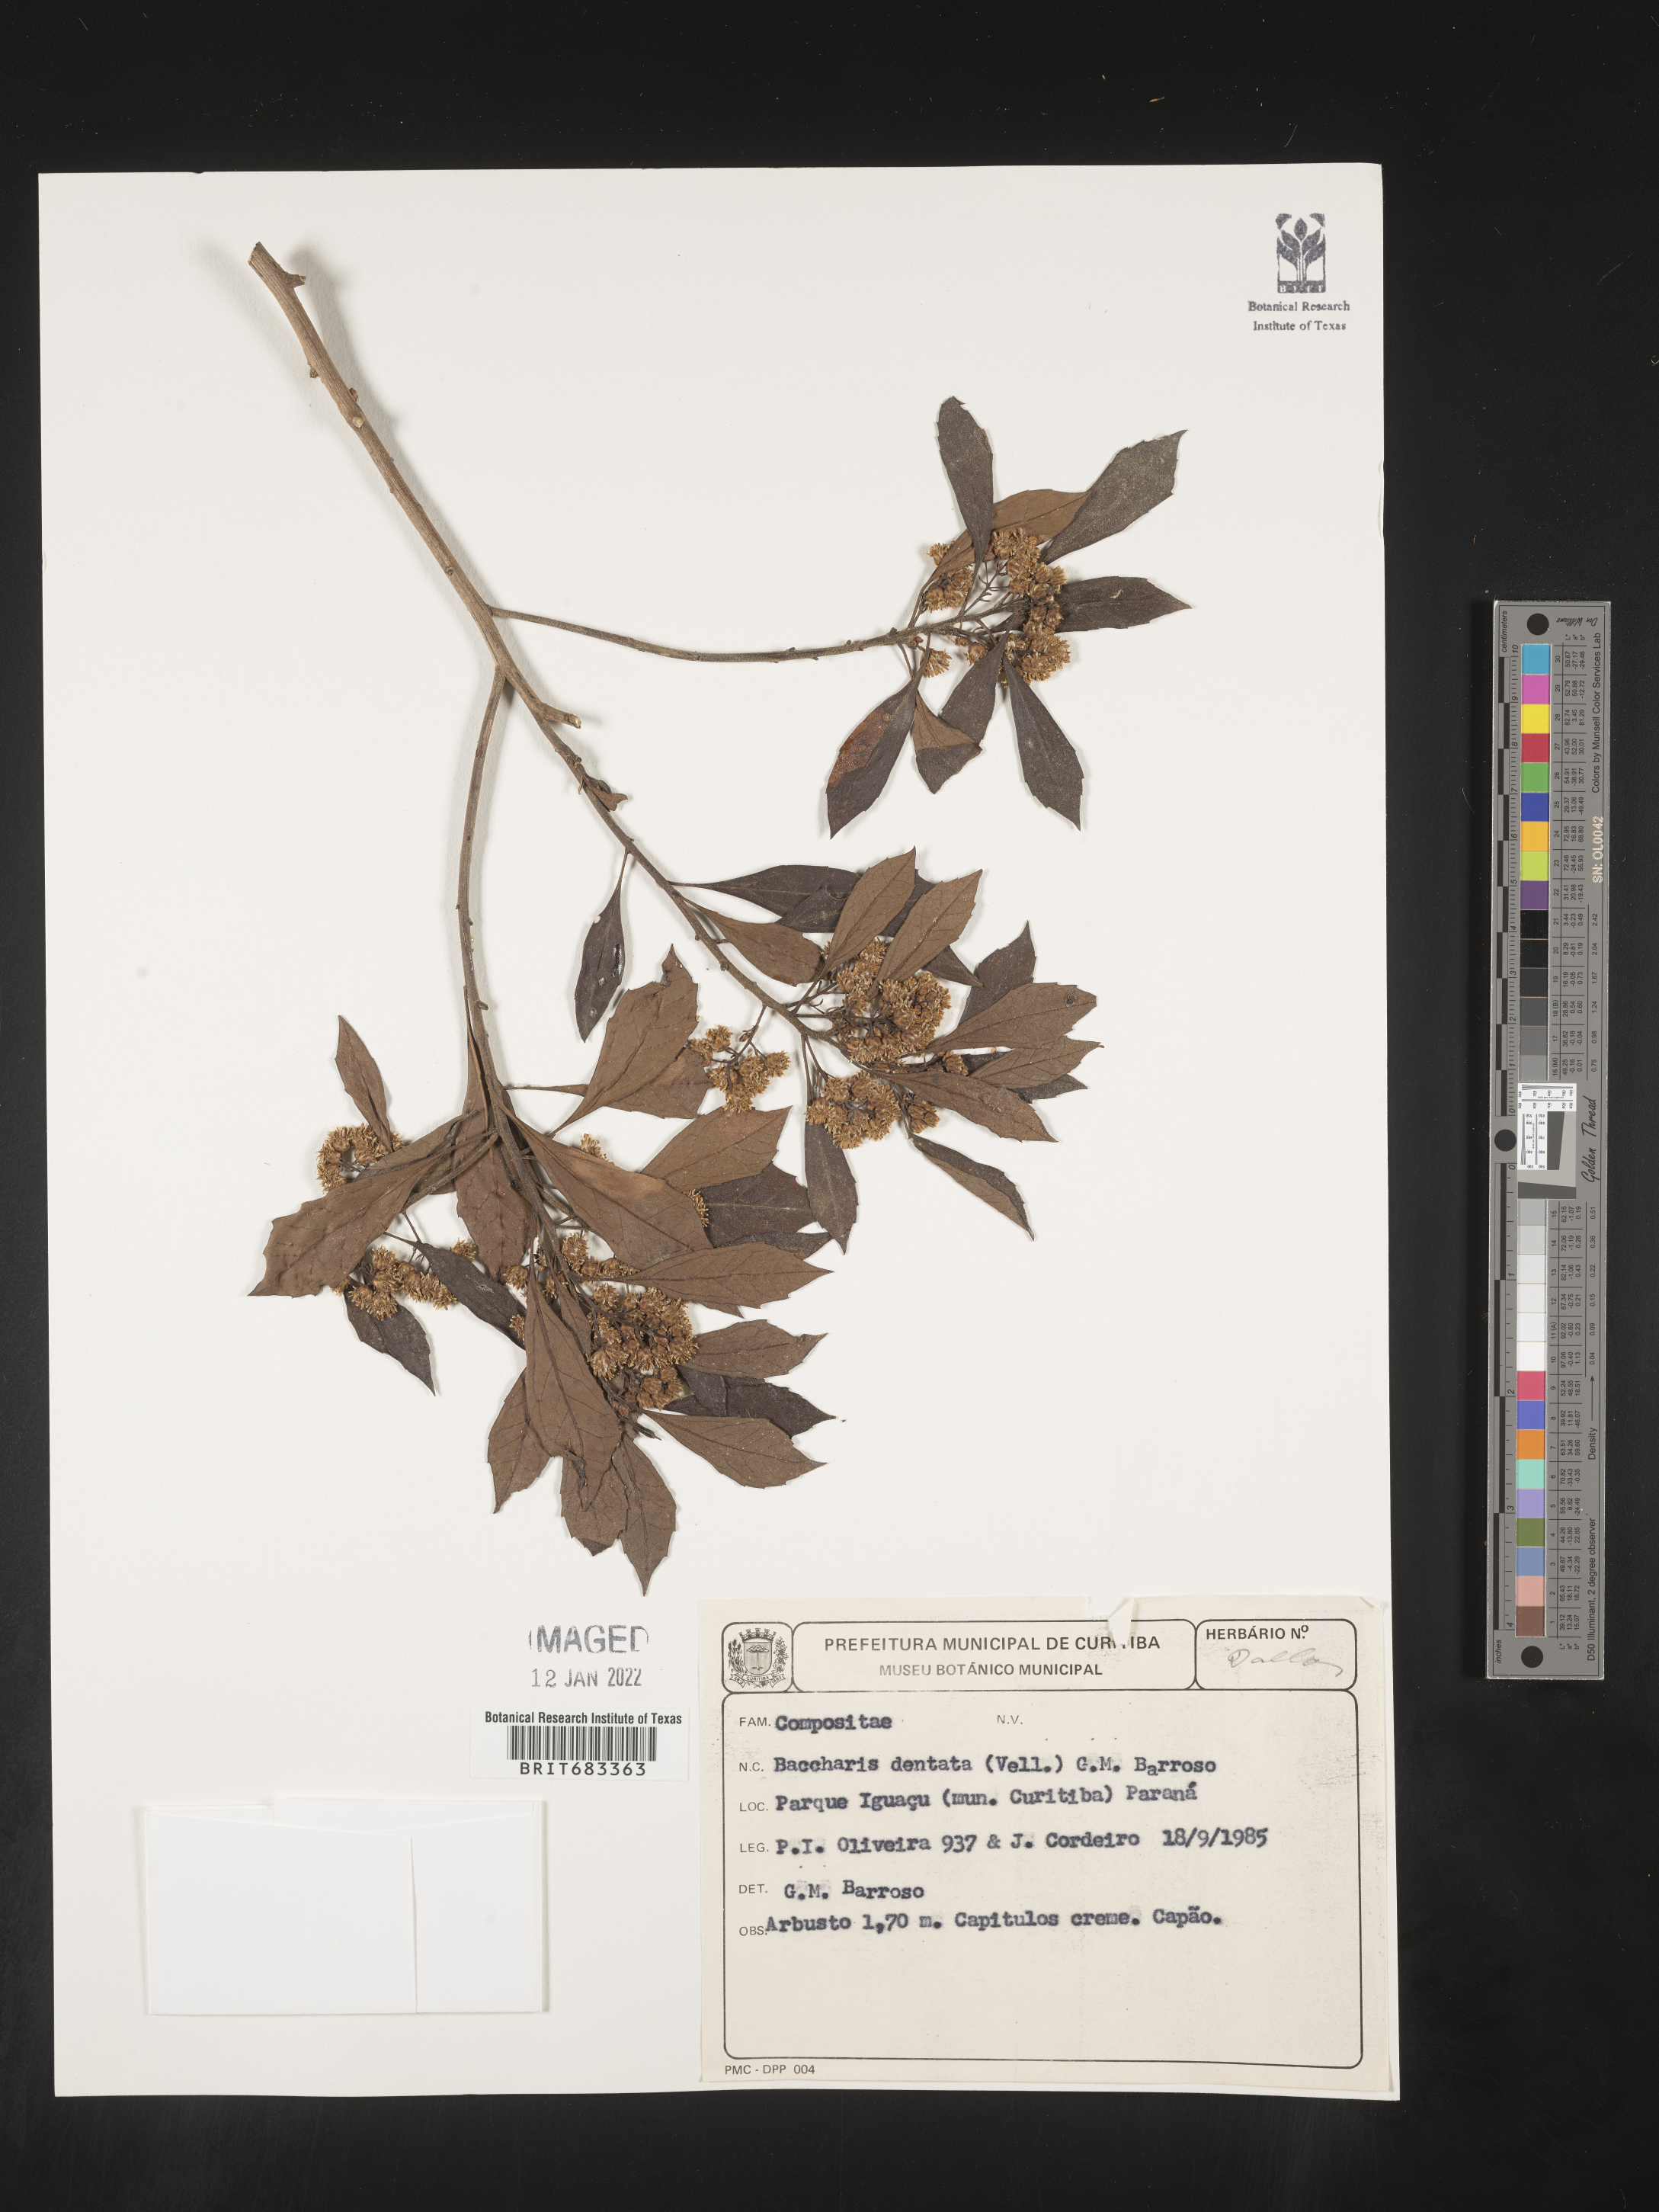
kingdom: Plantae
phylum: Tracheophyta
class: Magnoliopsida
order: Asterales
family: Asteraceae
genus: Baccharis
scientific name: Baccharis
